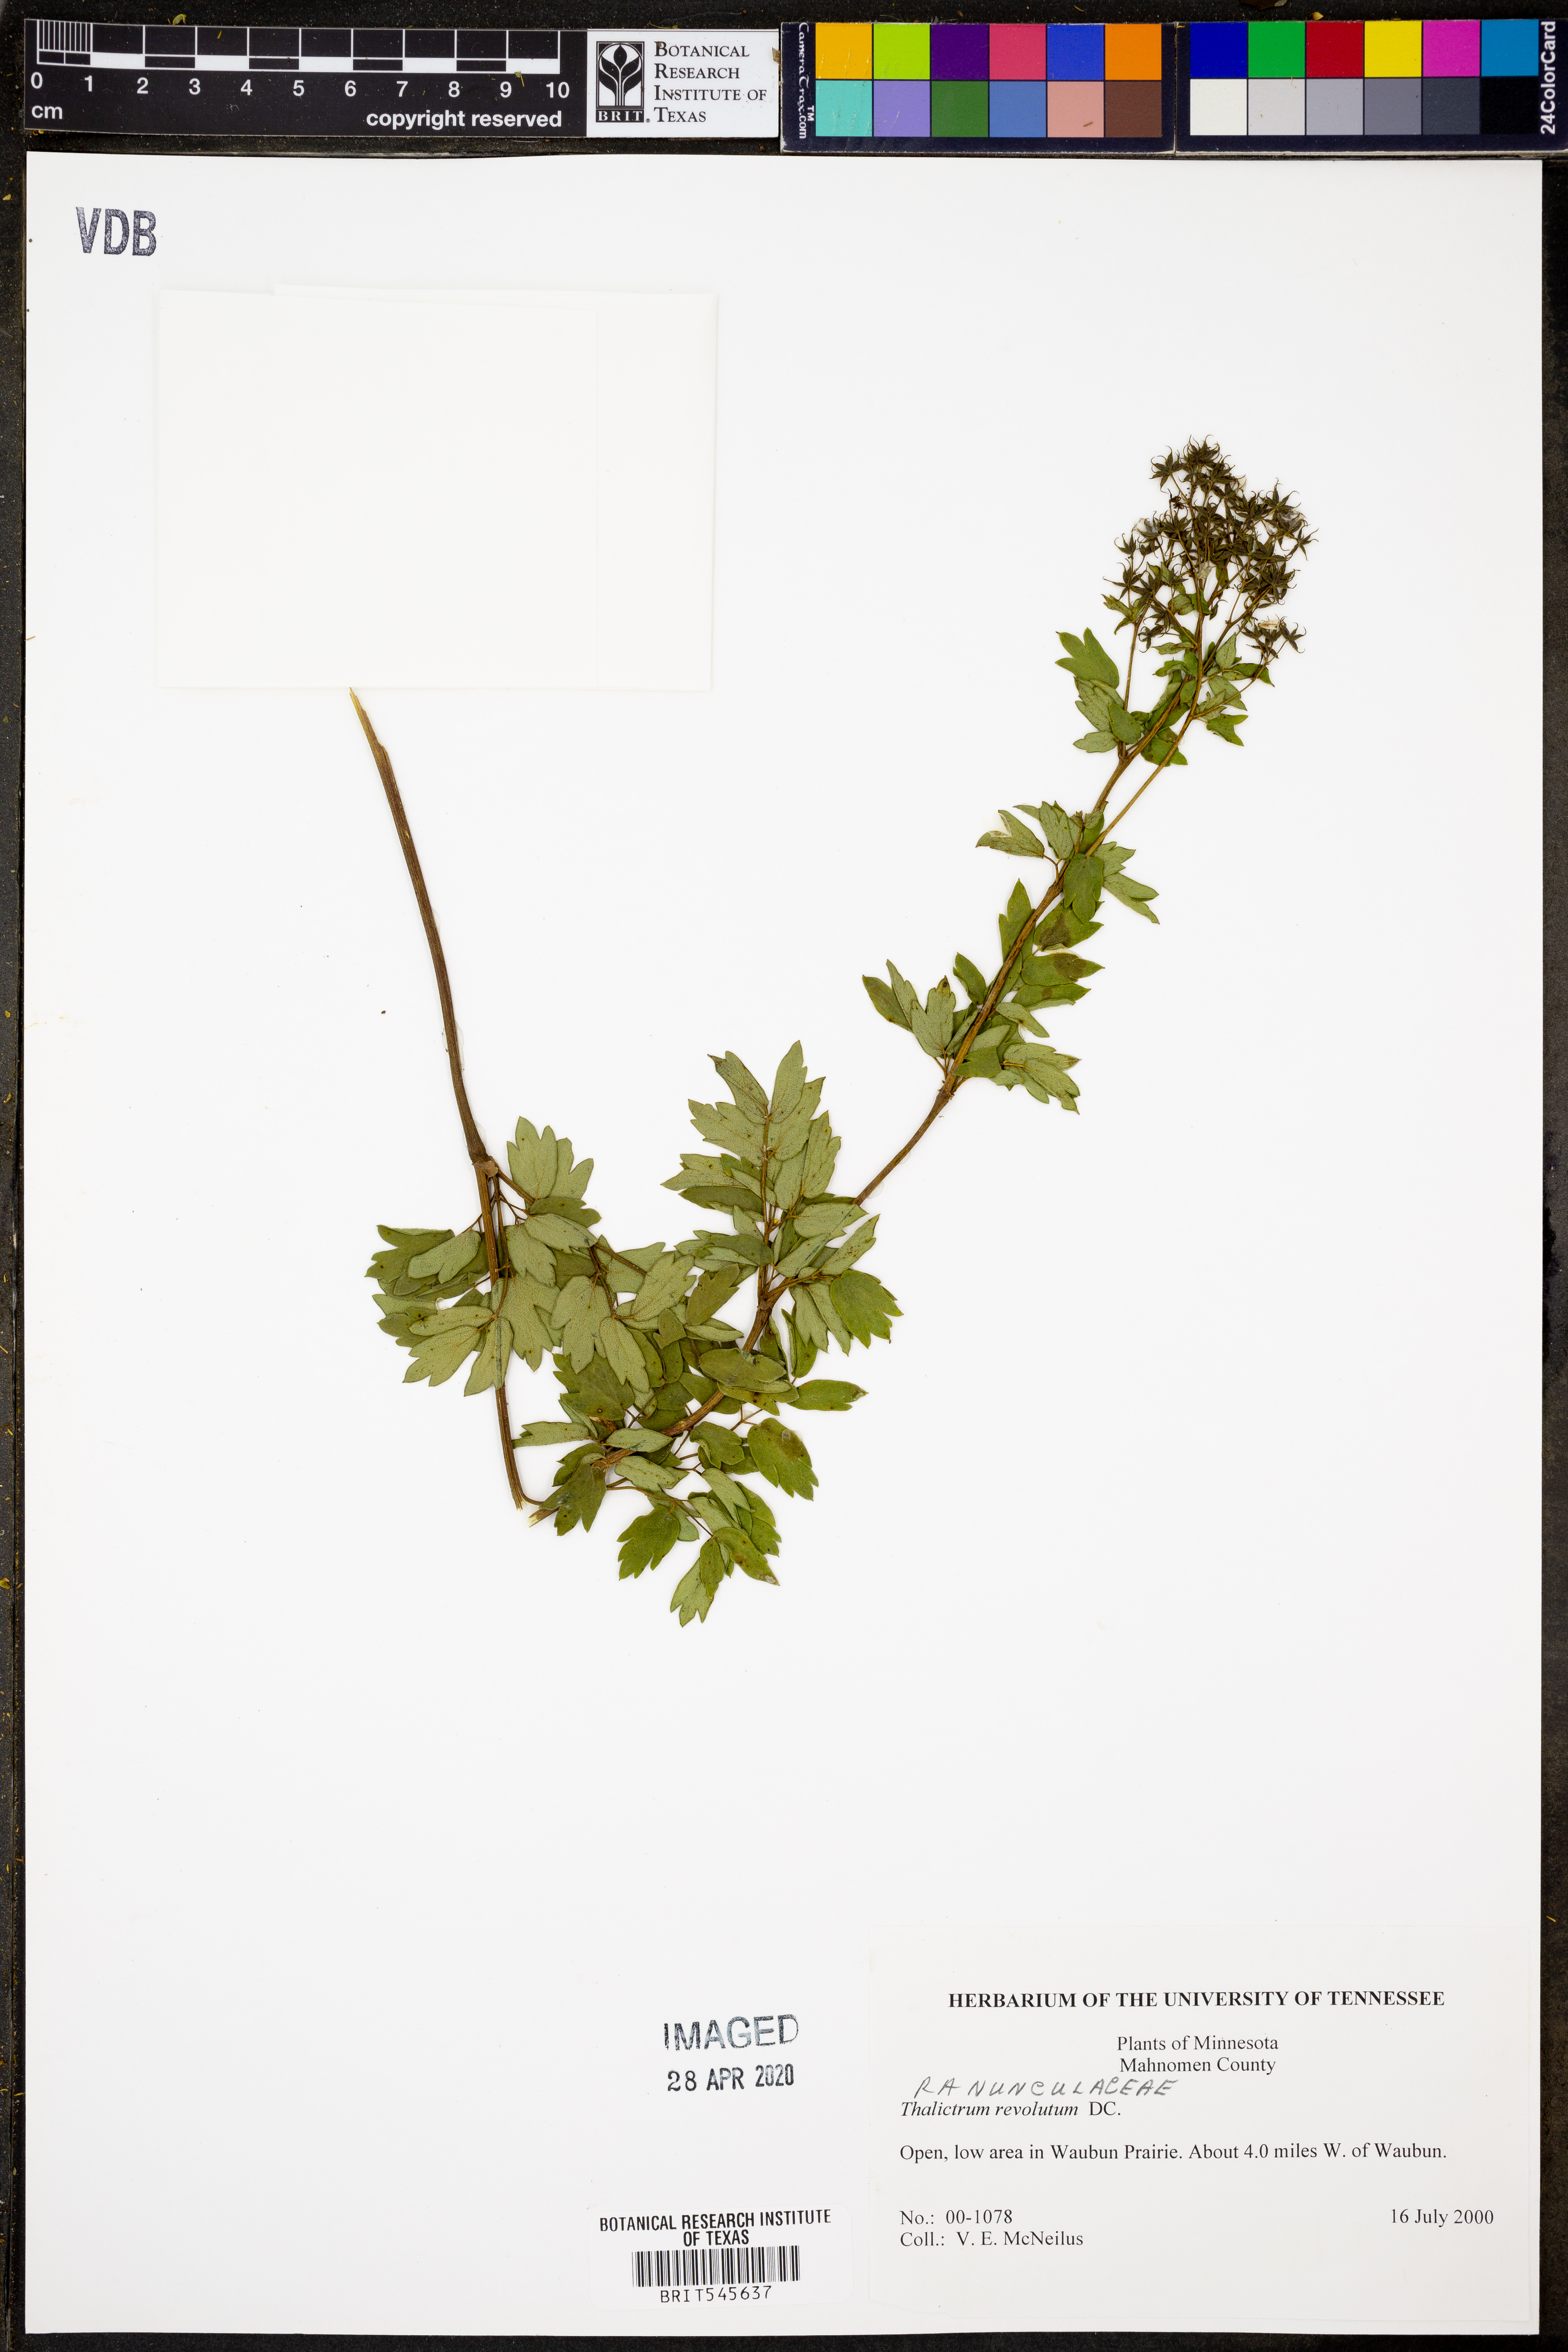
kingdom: Plantae
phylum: Tracheophyta
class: Magnoliopsida
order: Ranunculales
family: Ranunculaceae
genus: Thalictrum
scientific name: Thalictrum revolutum
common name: Waxy meadow-rue
